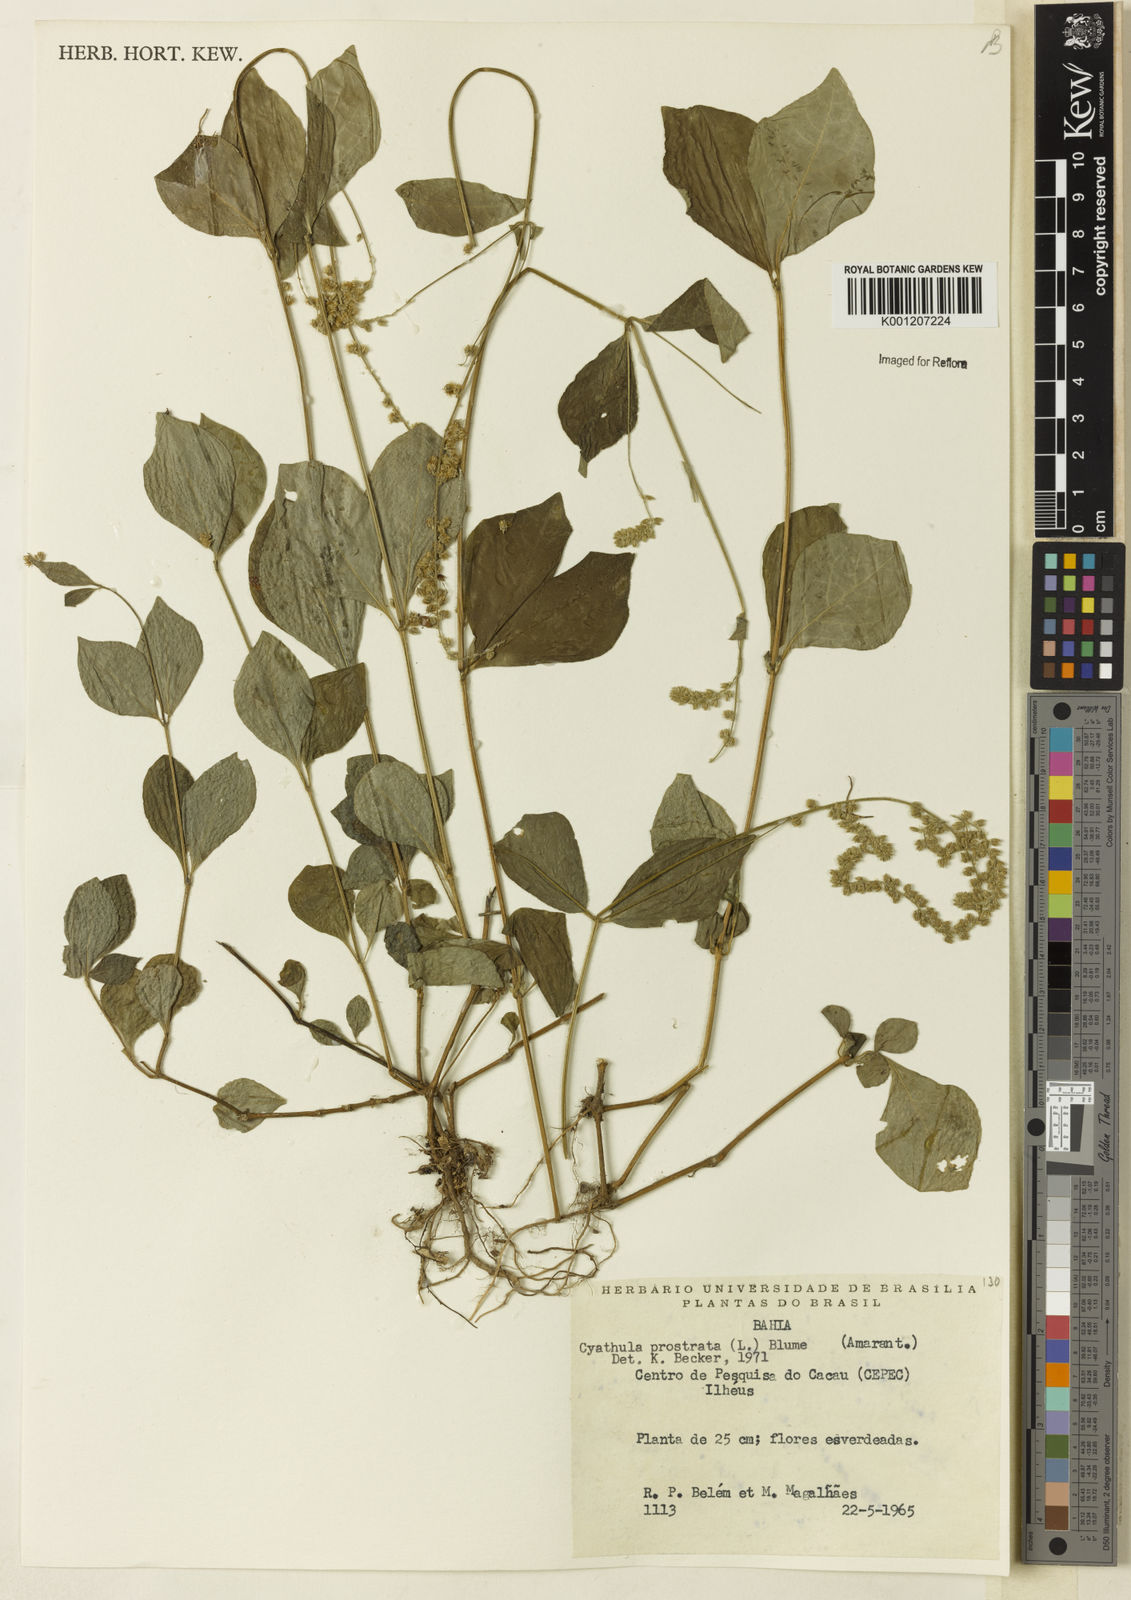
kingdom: Plantae
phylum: Tracheophyta
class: Magnoliopsida
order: Caryophyllales
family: Amaranthaceae
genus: Cyathula
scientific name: Cyathula prostrata
